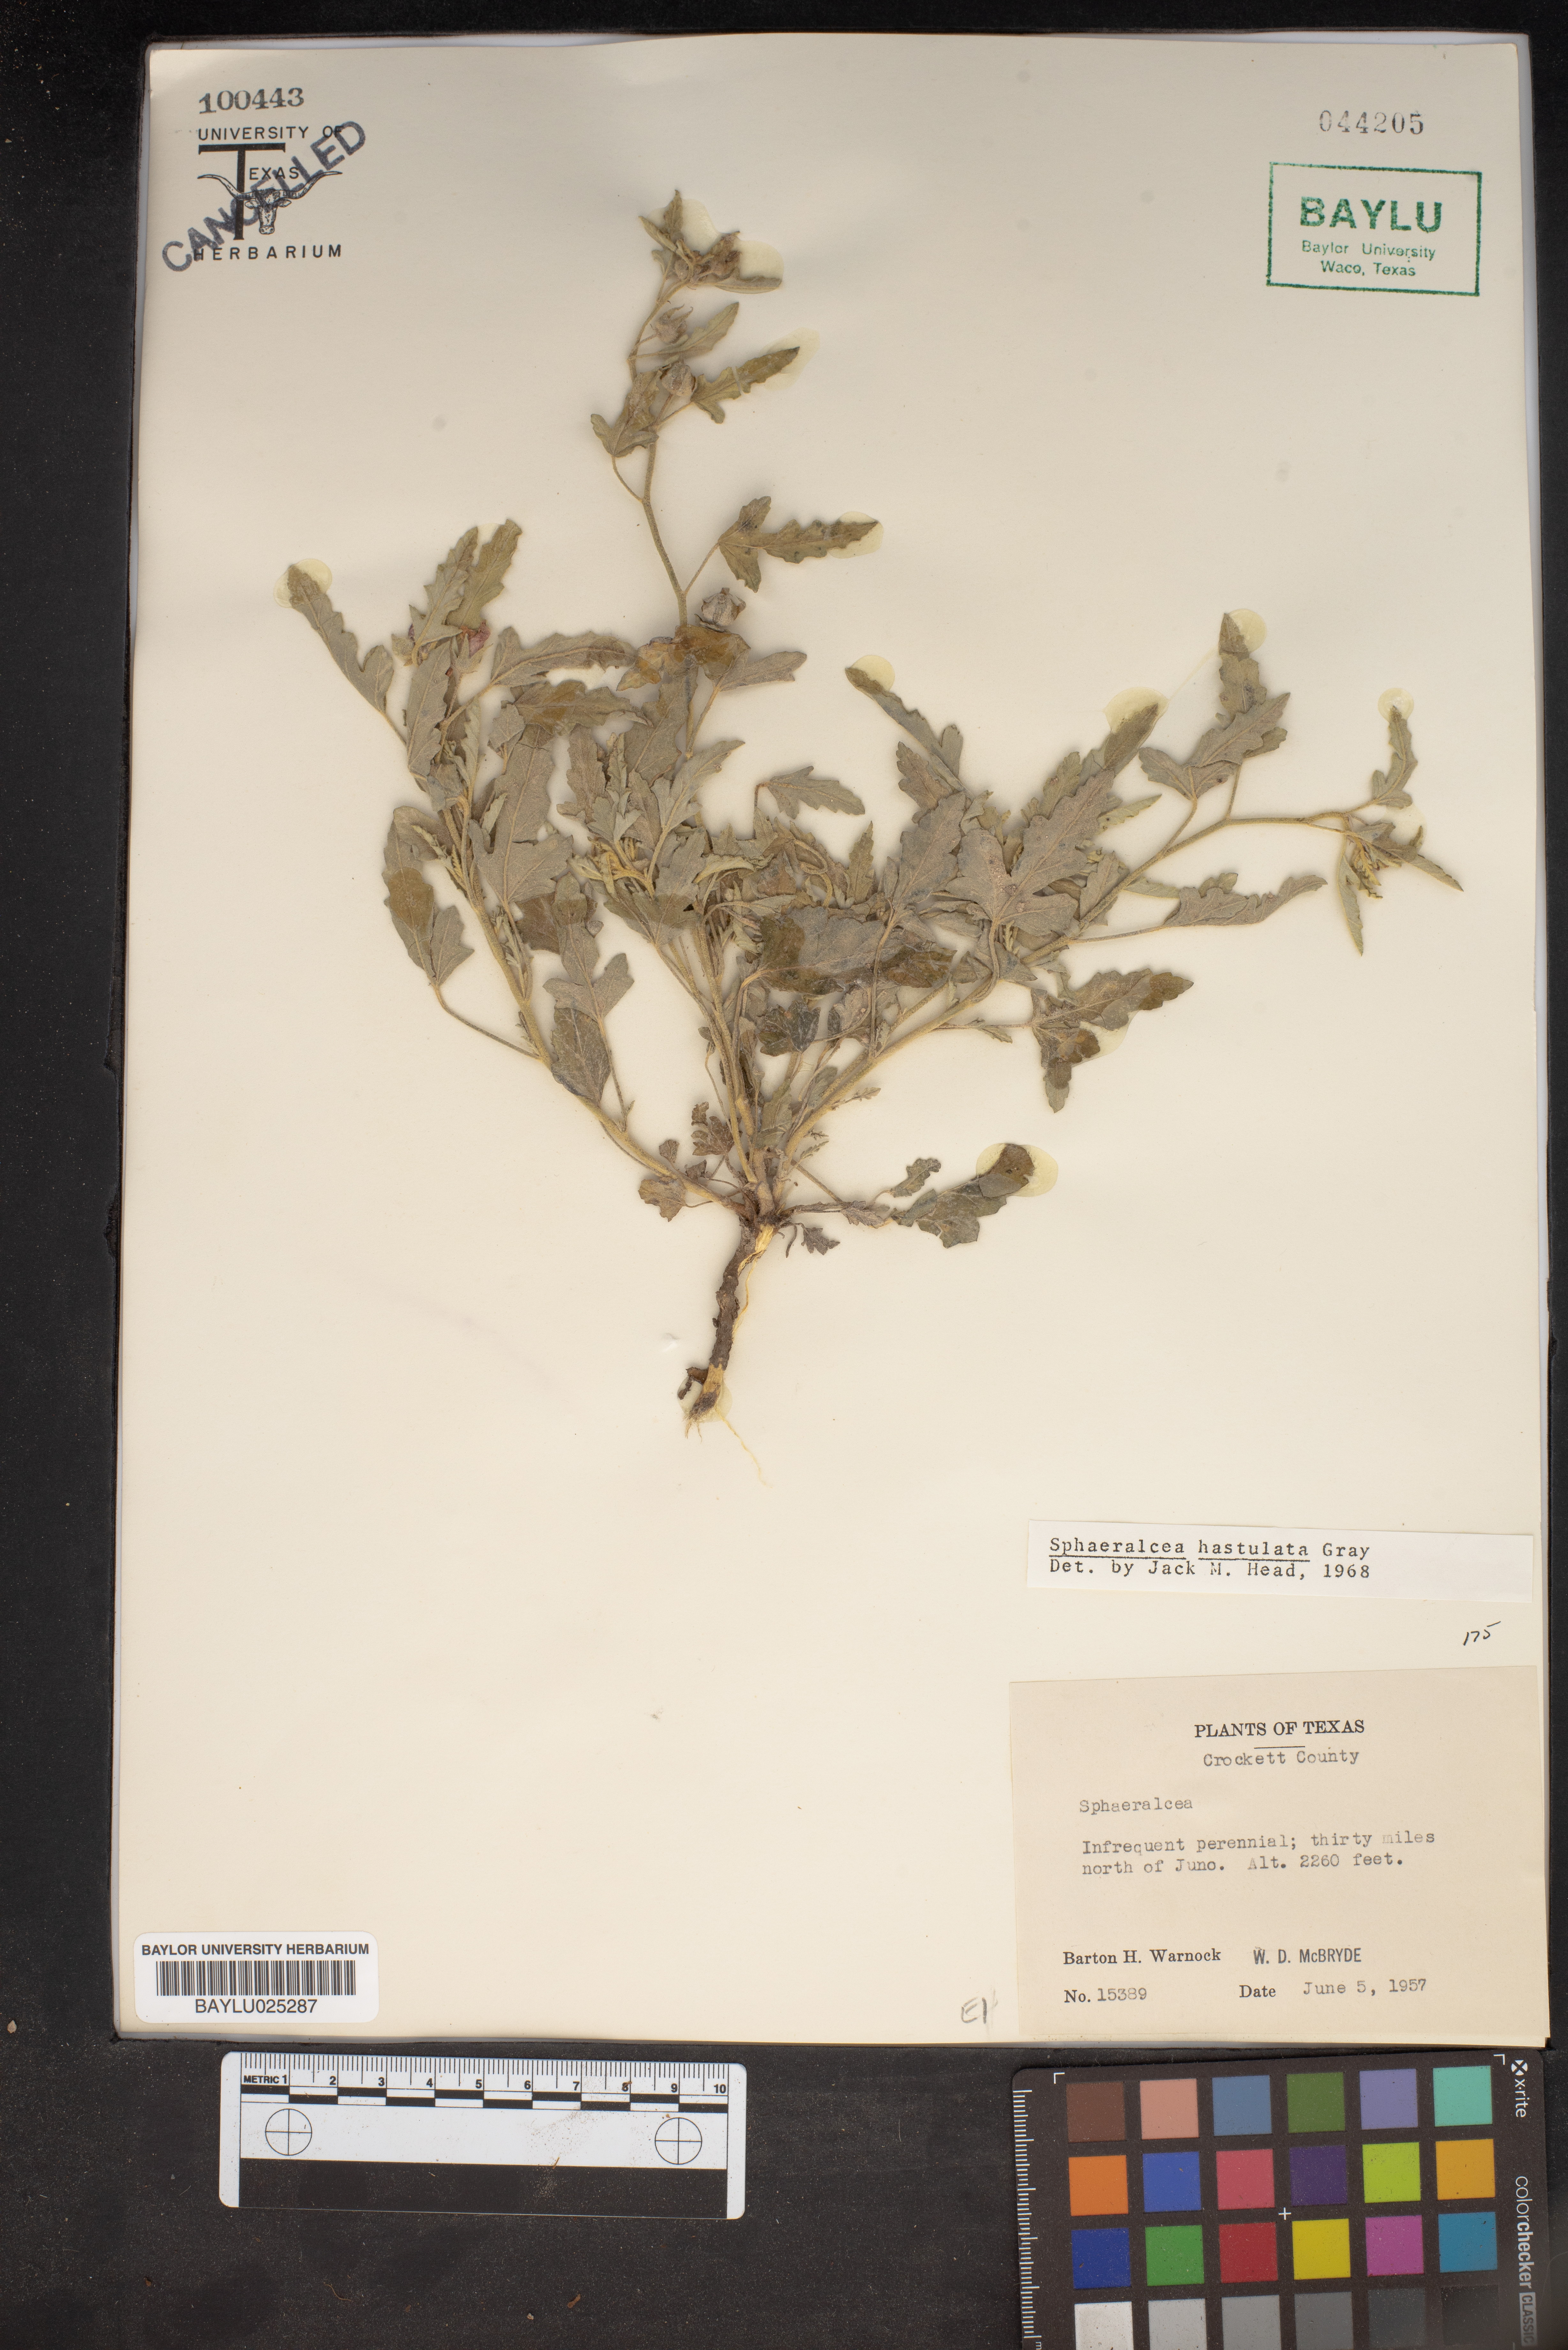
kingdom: Plantae
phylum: Tracheophyta
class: Magnoliopsida
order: Malvales
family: Malvaceae
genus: Sphaeralcea
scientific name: Sphaeralcea hastulata
